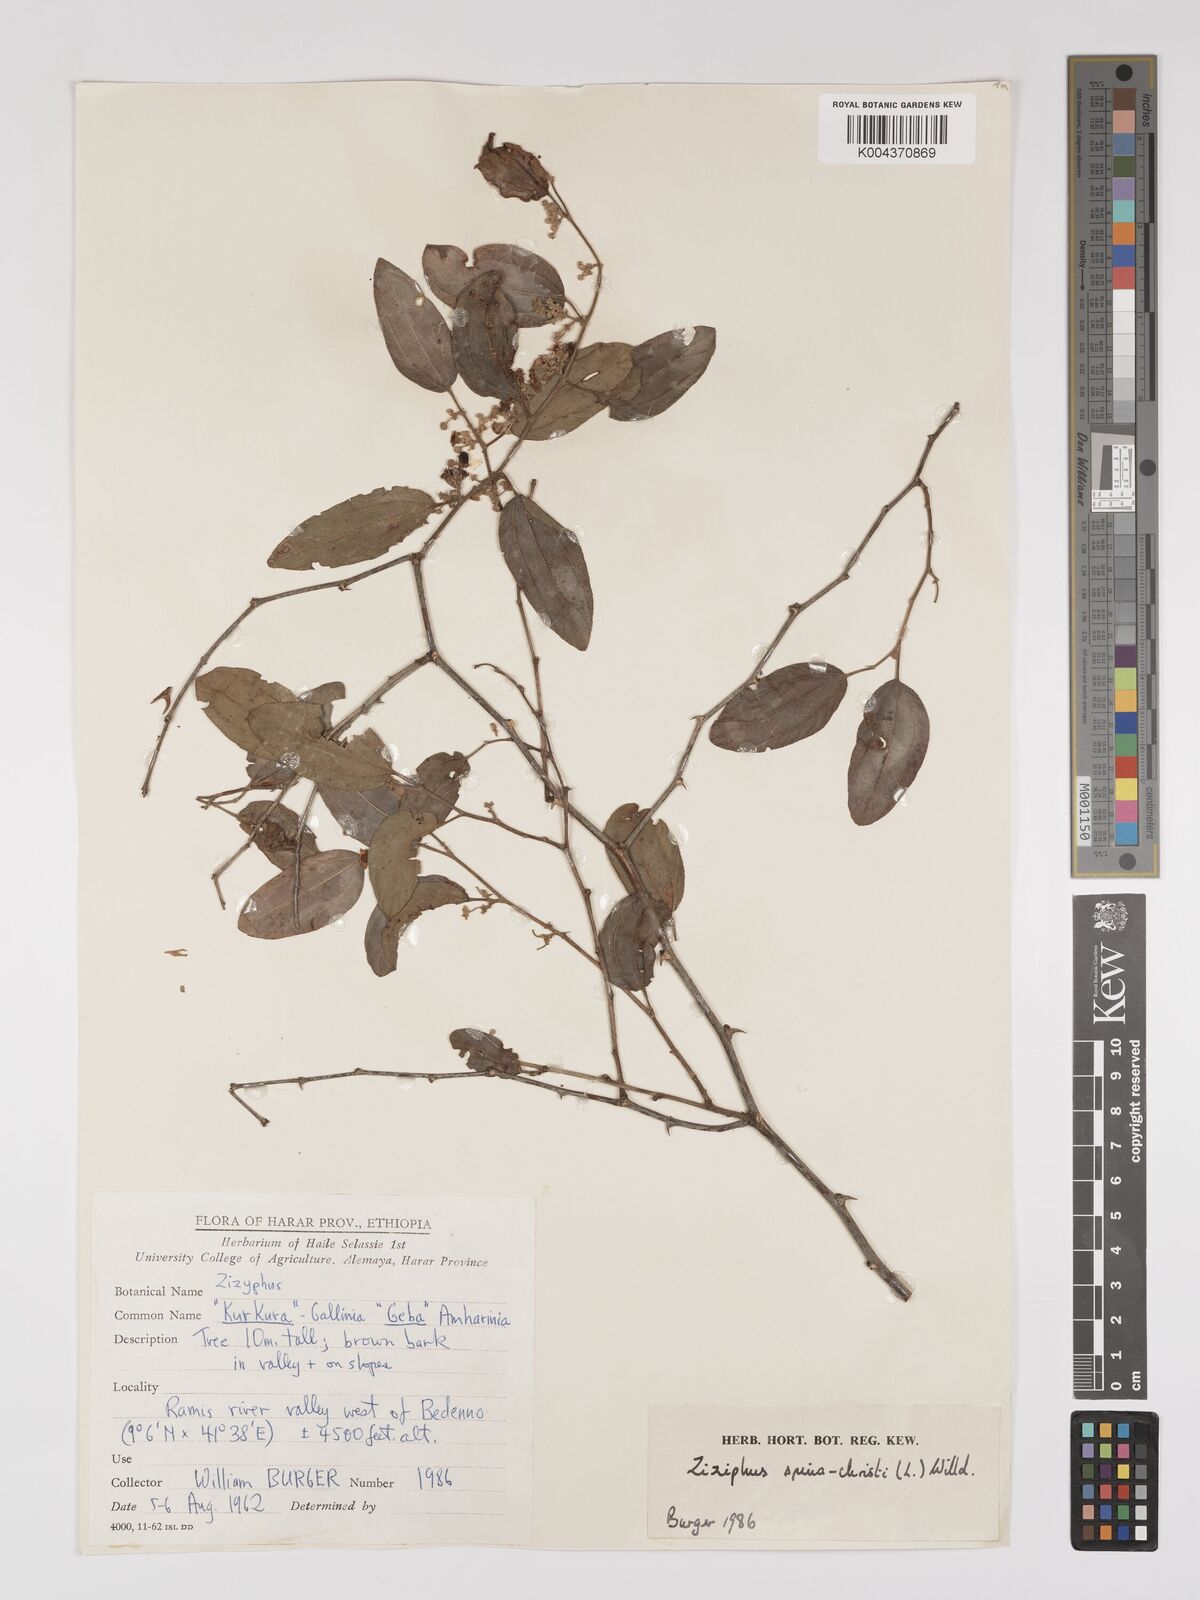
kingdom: Plantae
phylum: Tracheophyta
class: Magnoliopsida
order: Rosales
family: Rhamnaceae
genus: Ziziphus
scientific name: Ziziphus spina-christi
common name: Syrian christ-thorn
